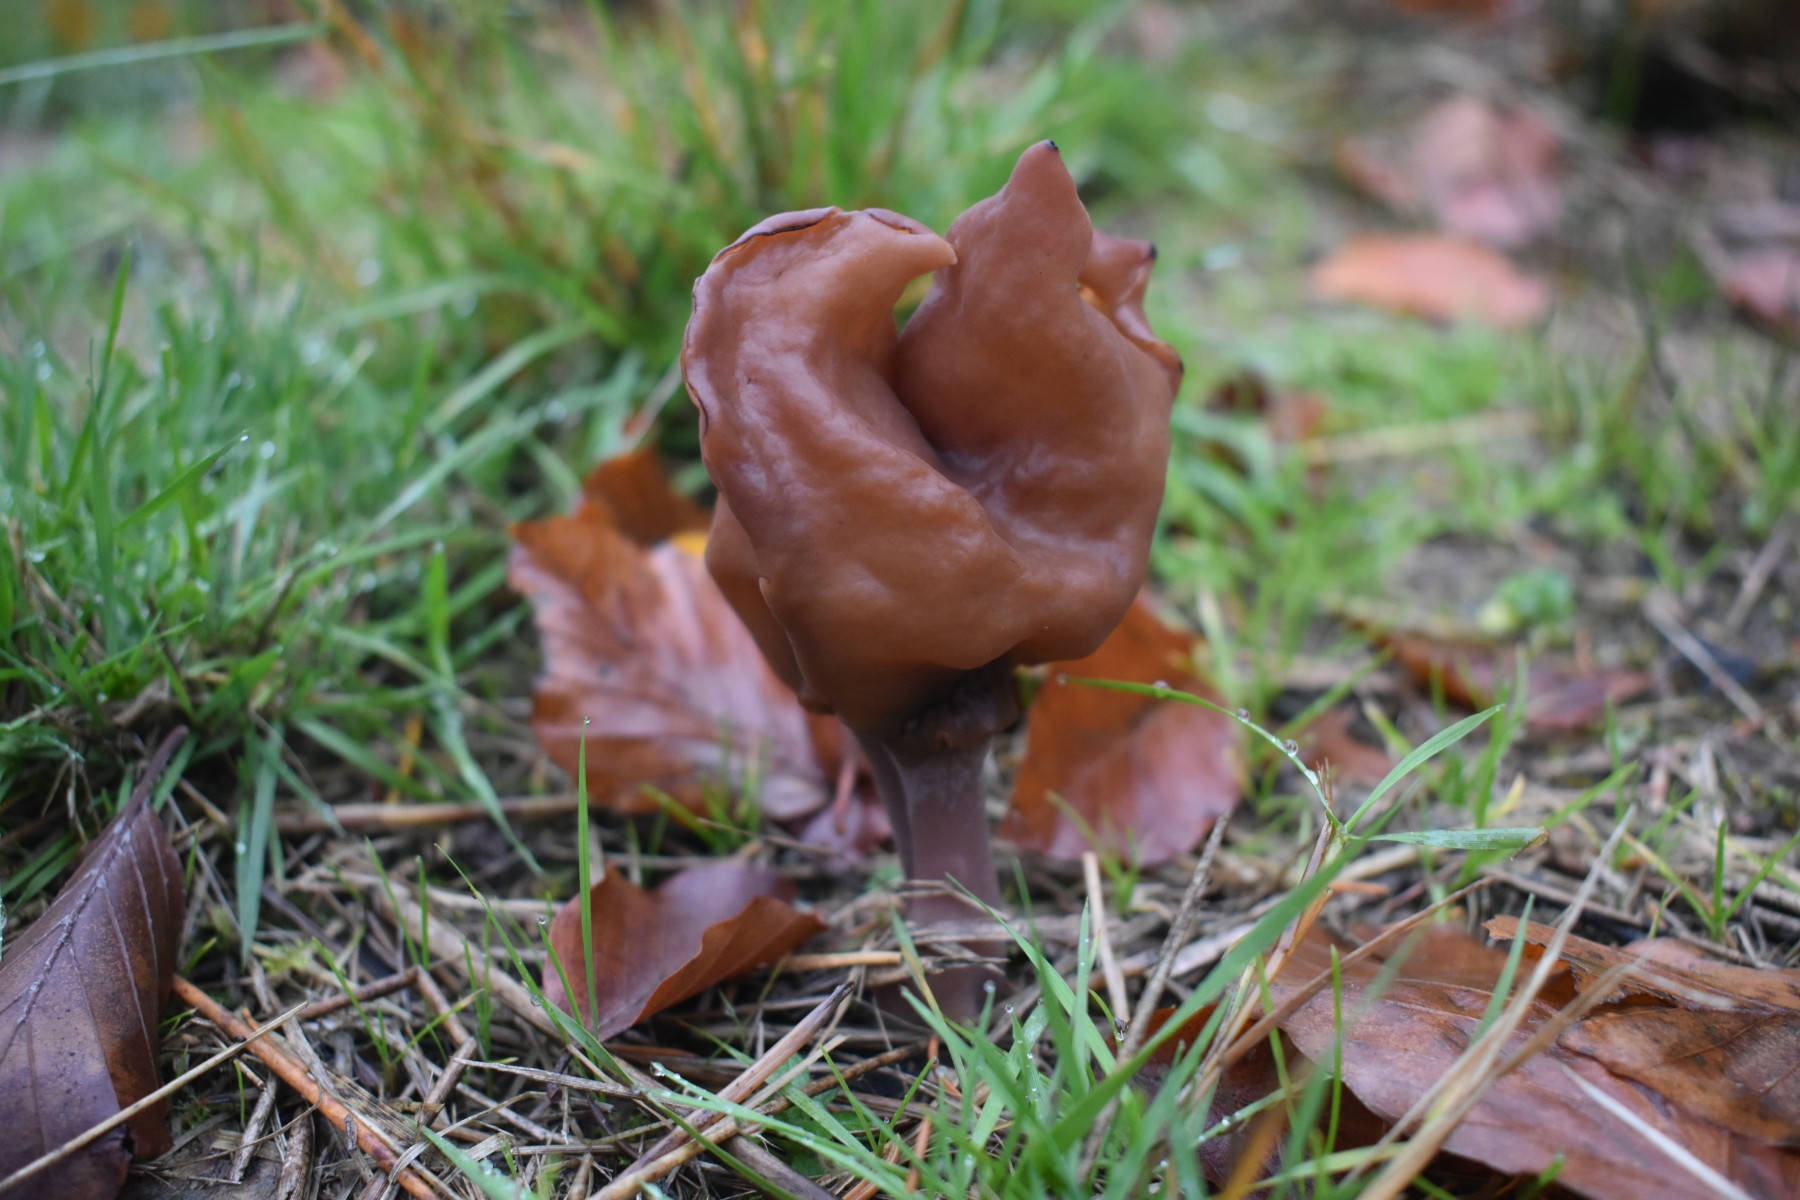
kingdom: Fungi
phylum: Ascomycota
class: Pezizomycetes
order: Pezizales
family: Discinaceae
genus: Gyromitra
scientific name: Gyromitra infula
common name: bispehue-stenmorkel
